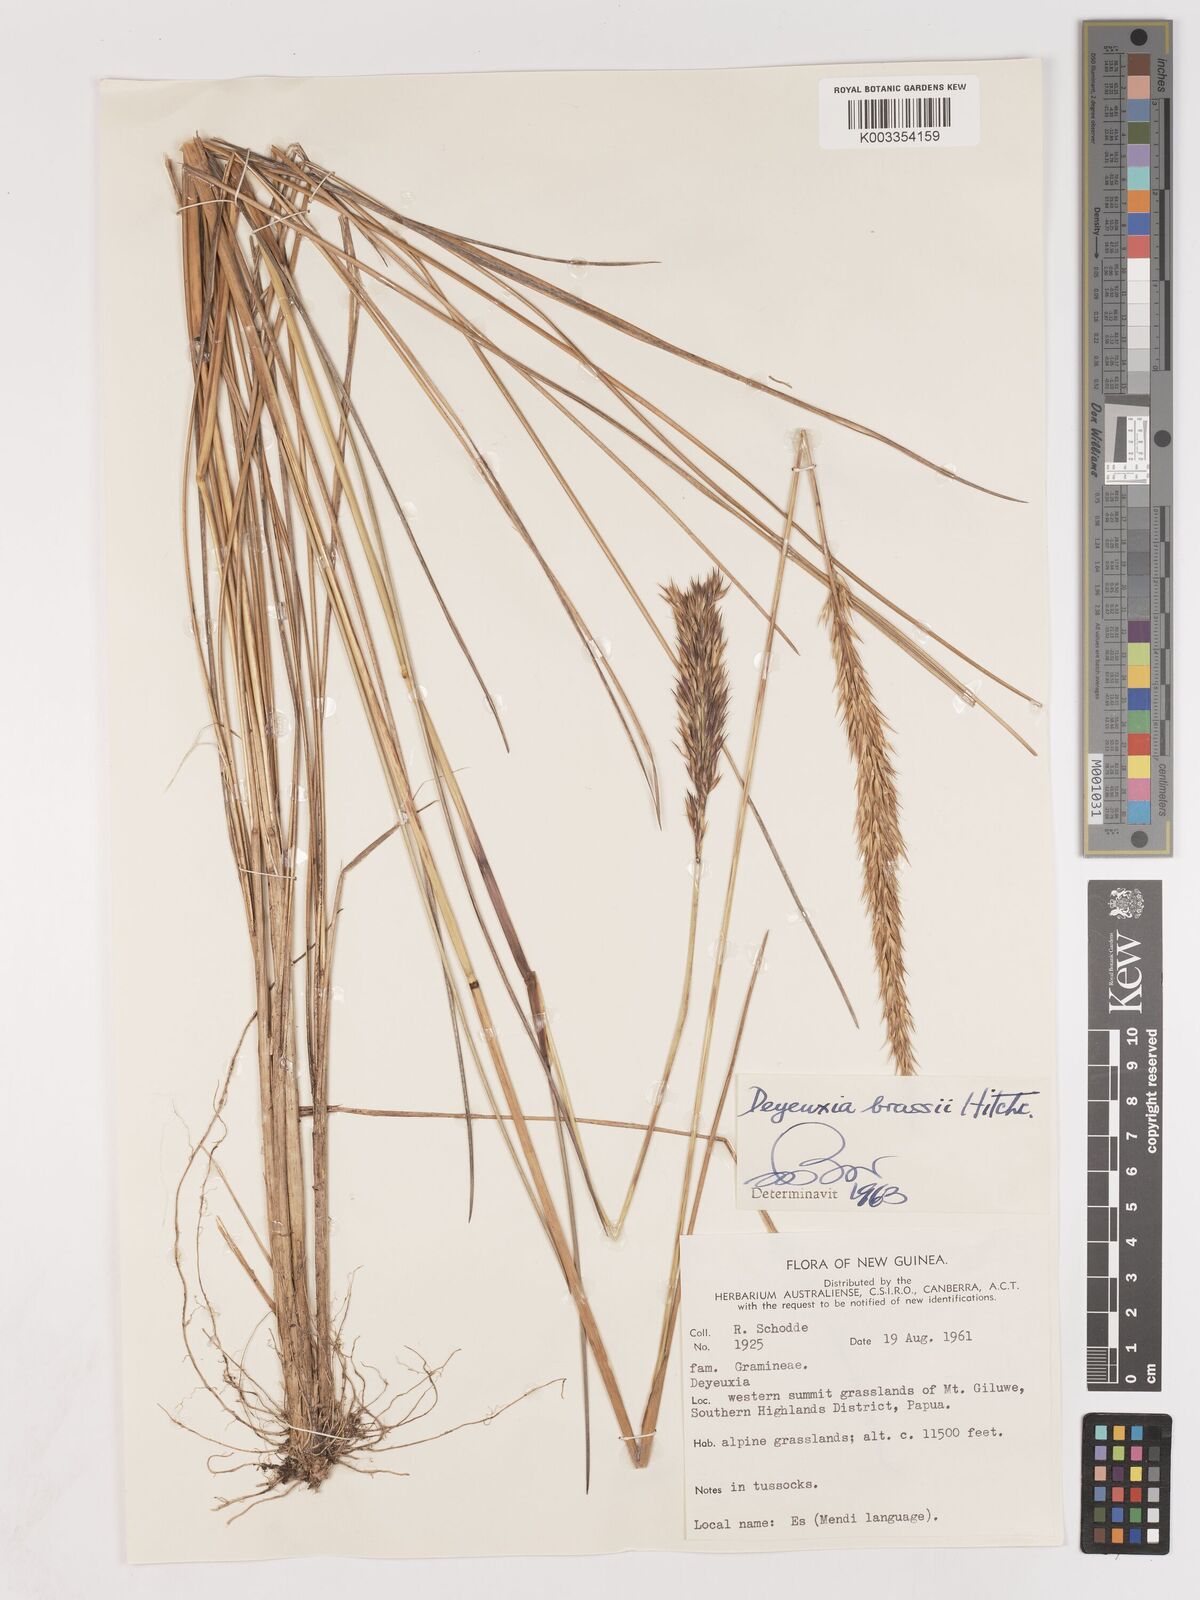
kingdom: Plantae
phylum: Tracheophyta
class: Liliopsida
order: Poales
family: Poaceae
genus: Calamagrostis
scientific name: Calamagrostis brassii
